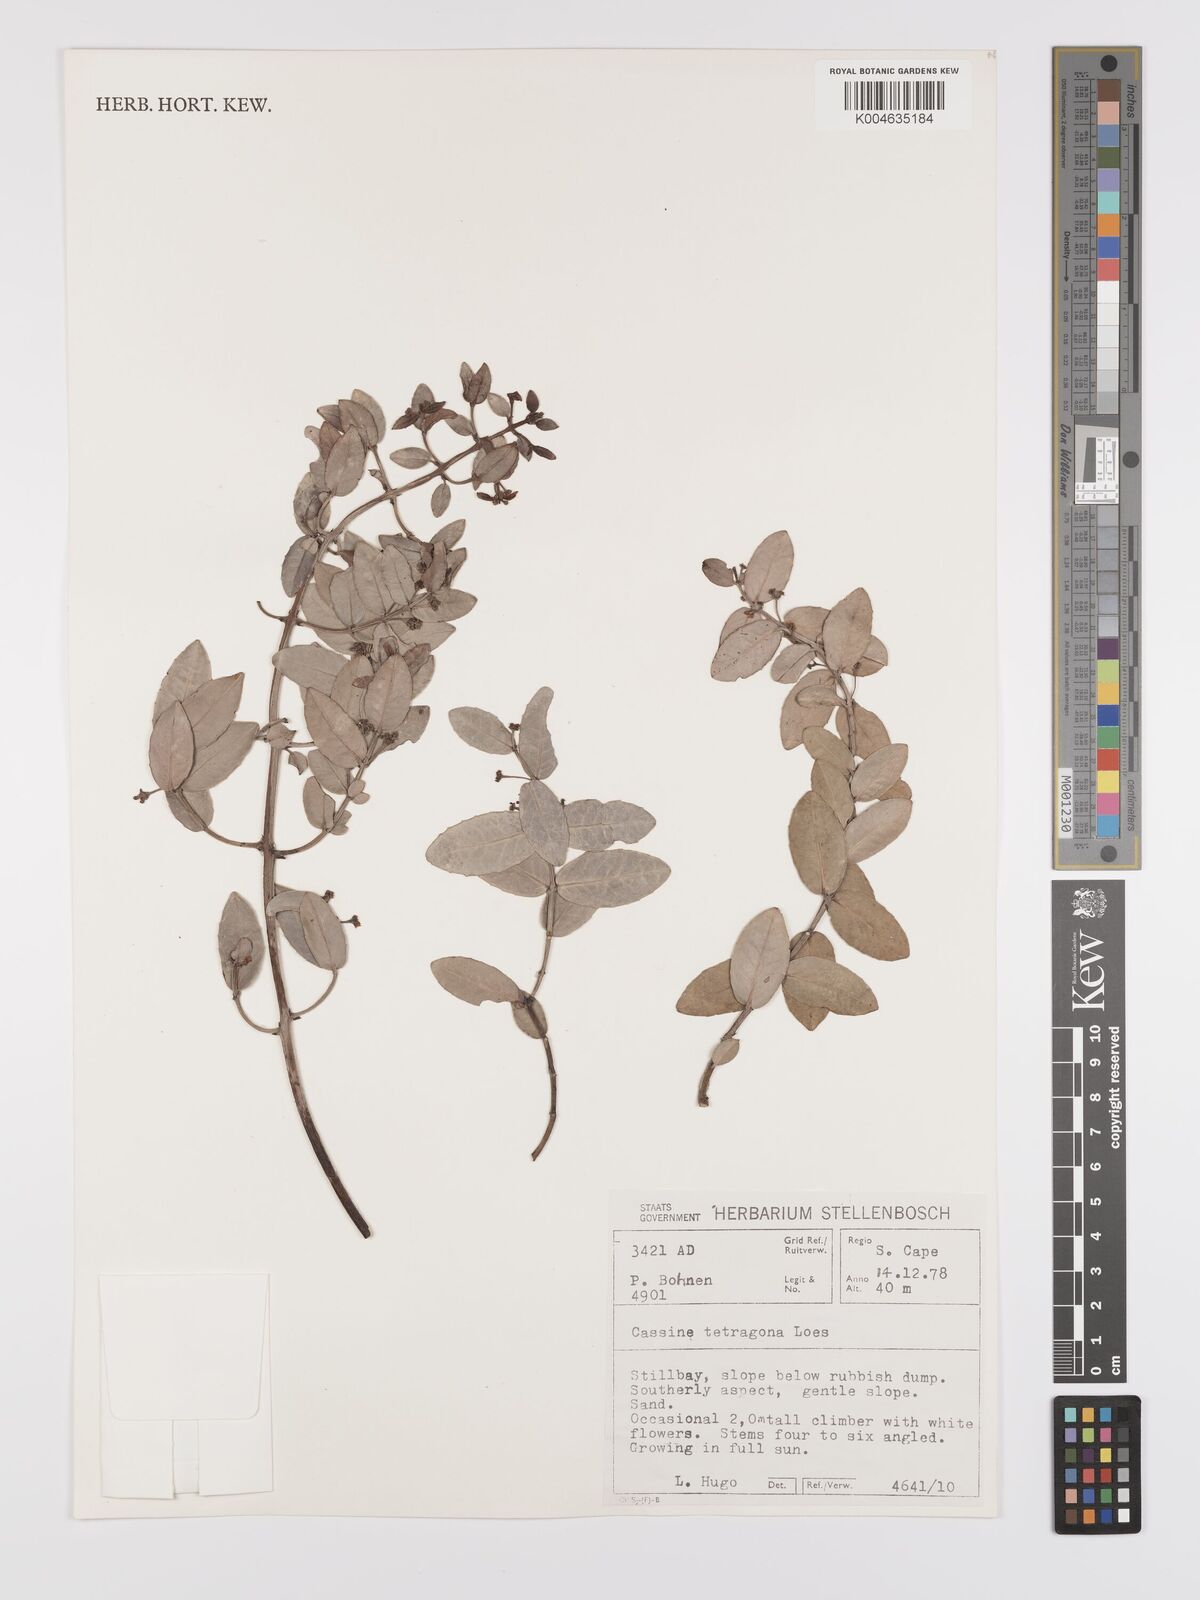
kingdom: Plantae
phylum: Tracheophyta
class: Magnoliopsida
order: Celastrales
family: Celastraceae
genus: Lauridia
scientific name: Lauridia tetragona
